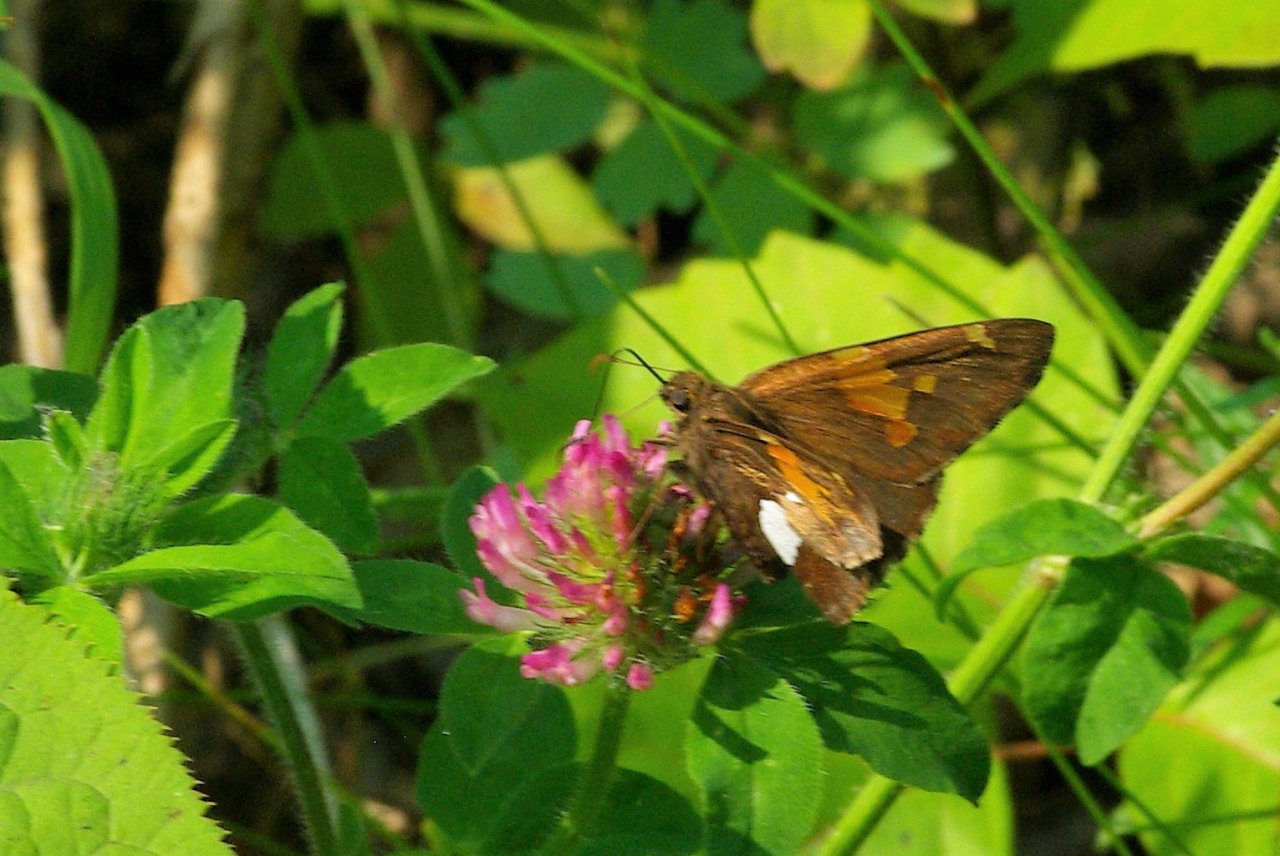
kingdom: Animalia
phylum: Arthropoda
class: Insecta
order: Lepidoptera
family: Hesperiidae
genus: Epargyreus
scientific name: Epargyreus clarus
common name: Silver-spotted Skipper
